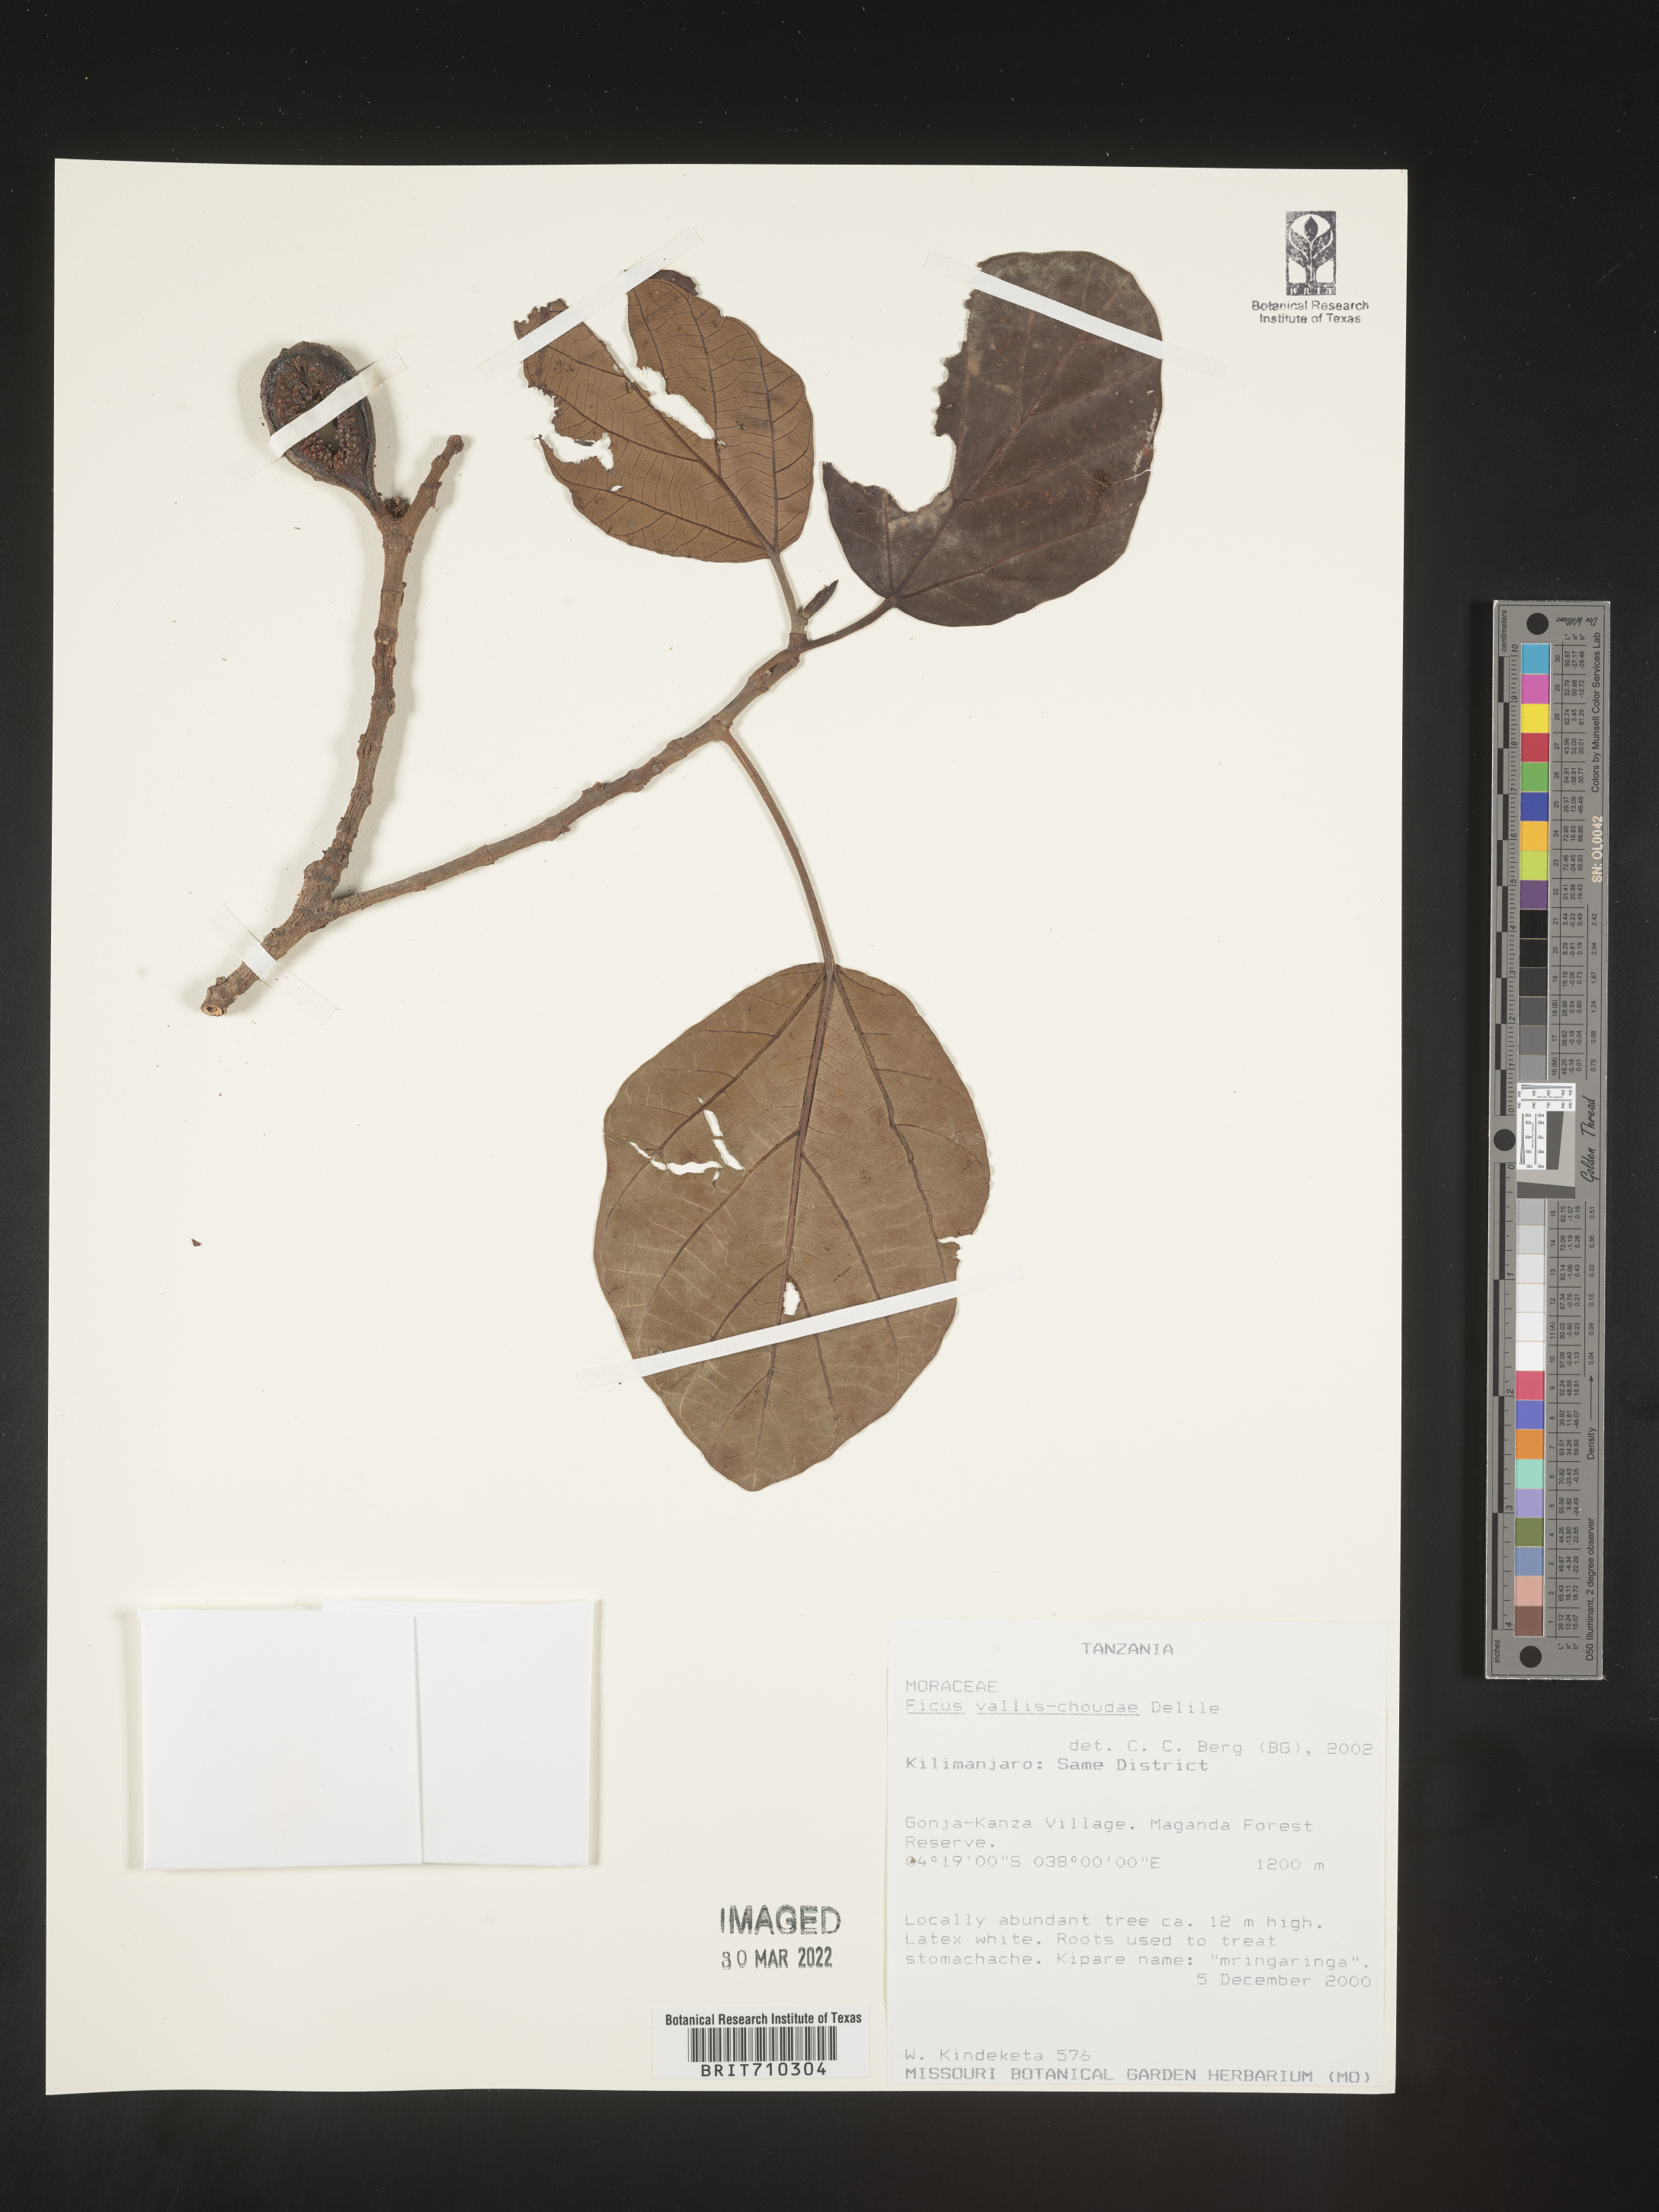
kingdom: Plantae
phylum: Tracheophyta
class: Magnoliopsida
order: Rosales
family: Moraceae
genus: Ficus
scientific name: Ficus
